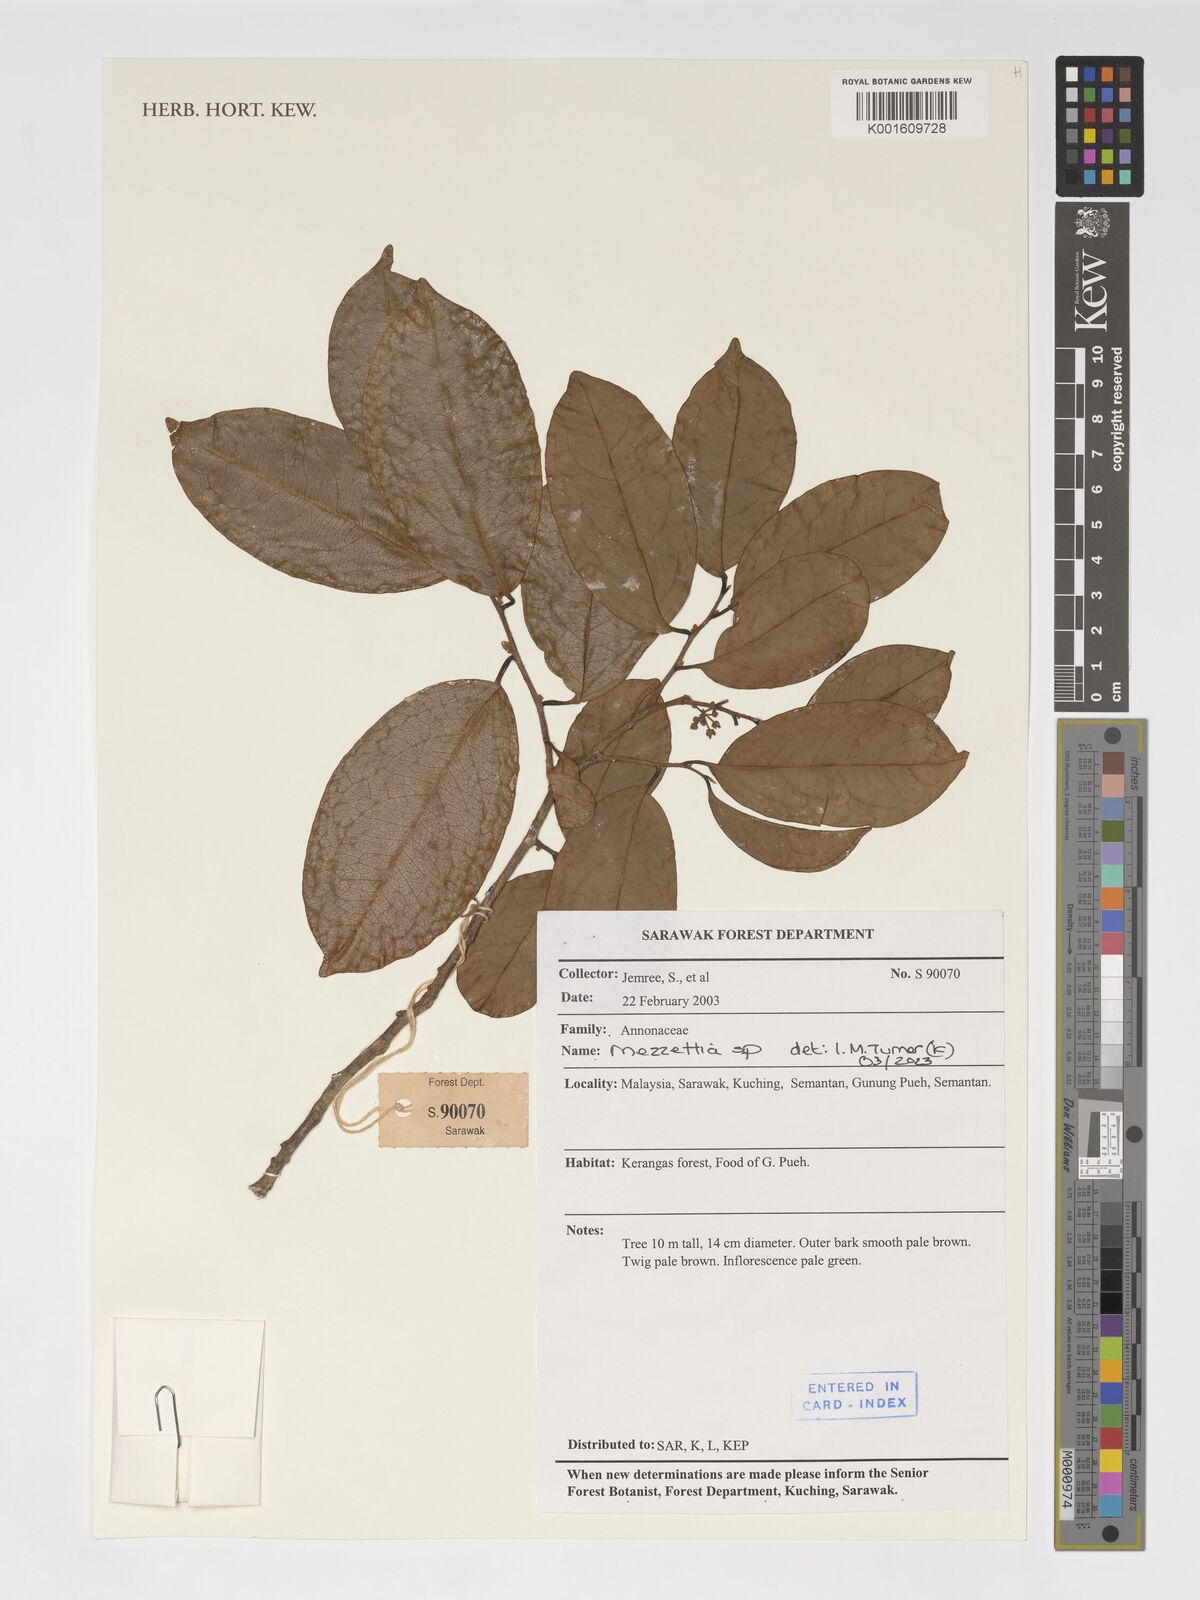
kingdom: Plantae
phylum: Tracheophyta
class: Magnoliopsida
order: Magnoliales
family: Annonaceae
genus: Mezzettia
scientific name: Mezzettia
